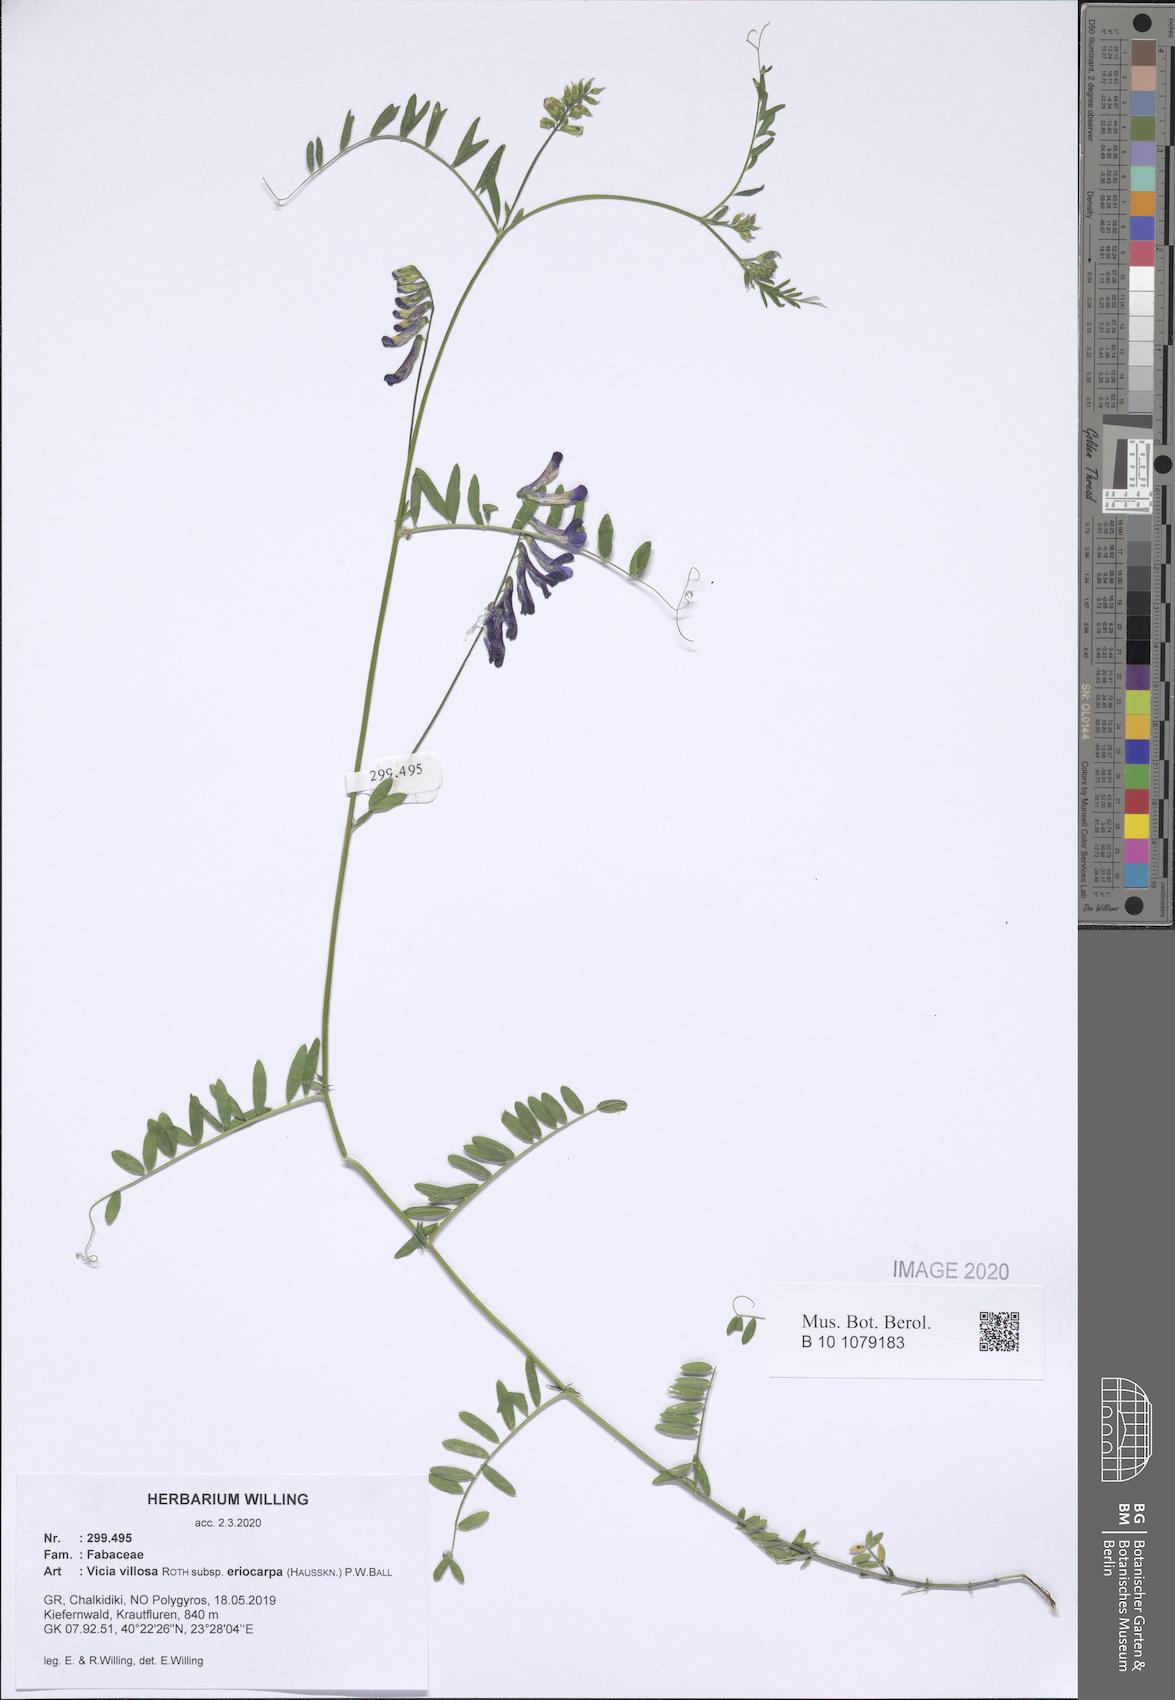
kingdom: Plantae
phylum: Tracheophyta
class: Magnoliopsida
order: Fabales
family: Fabaceae
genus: Vicia
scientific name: Vicia eriocarpa
